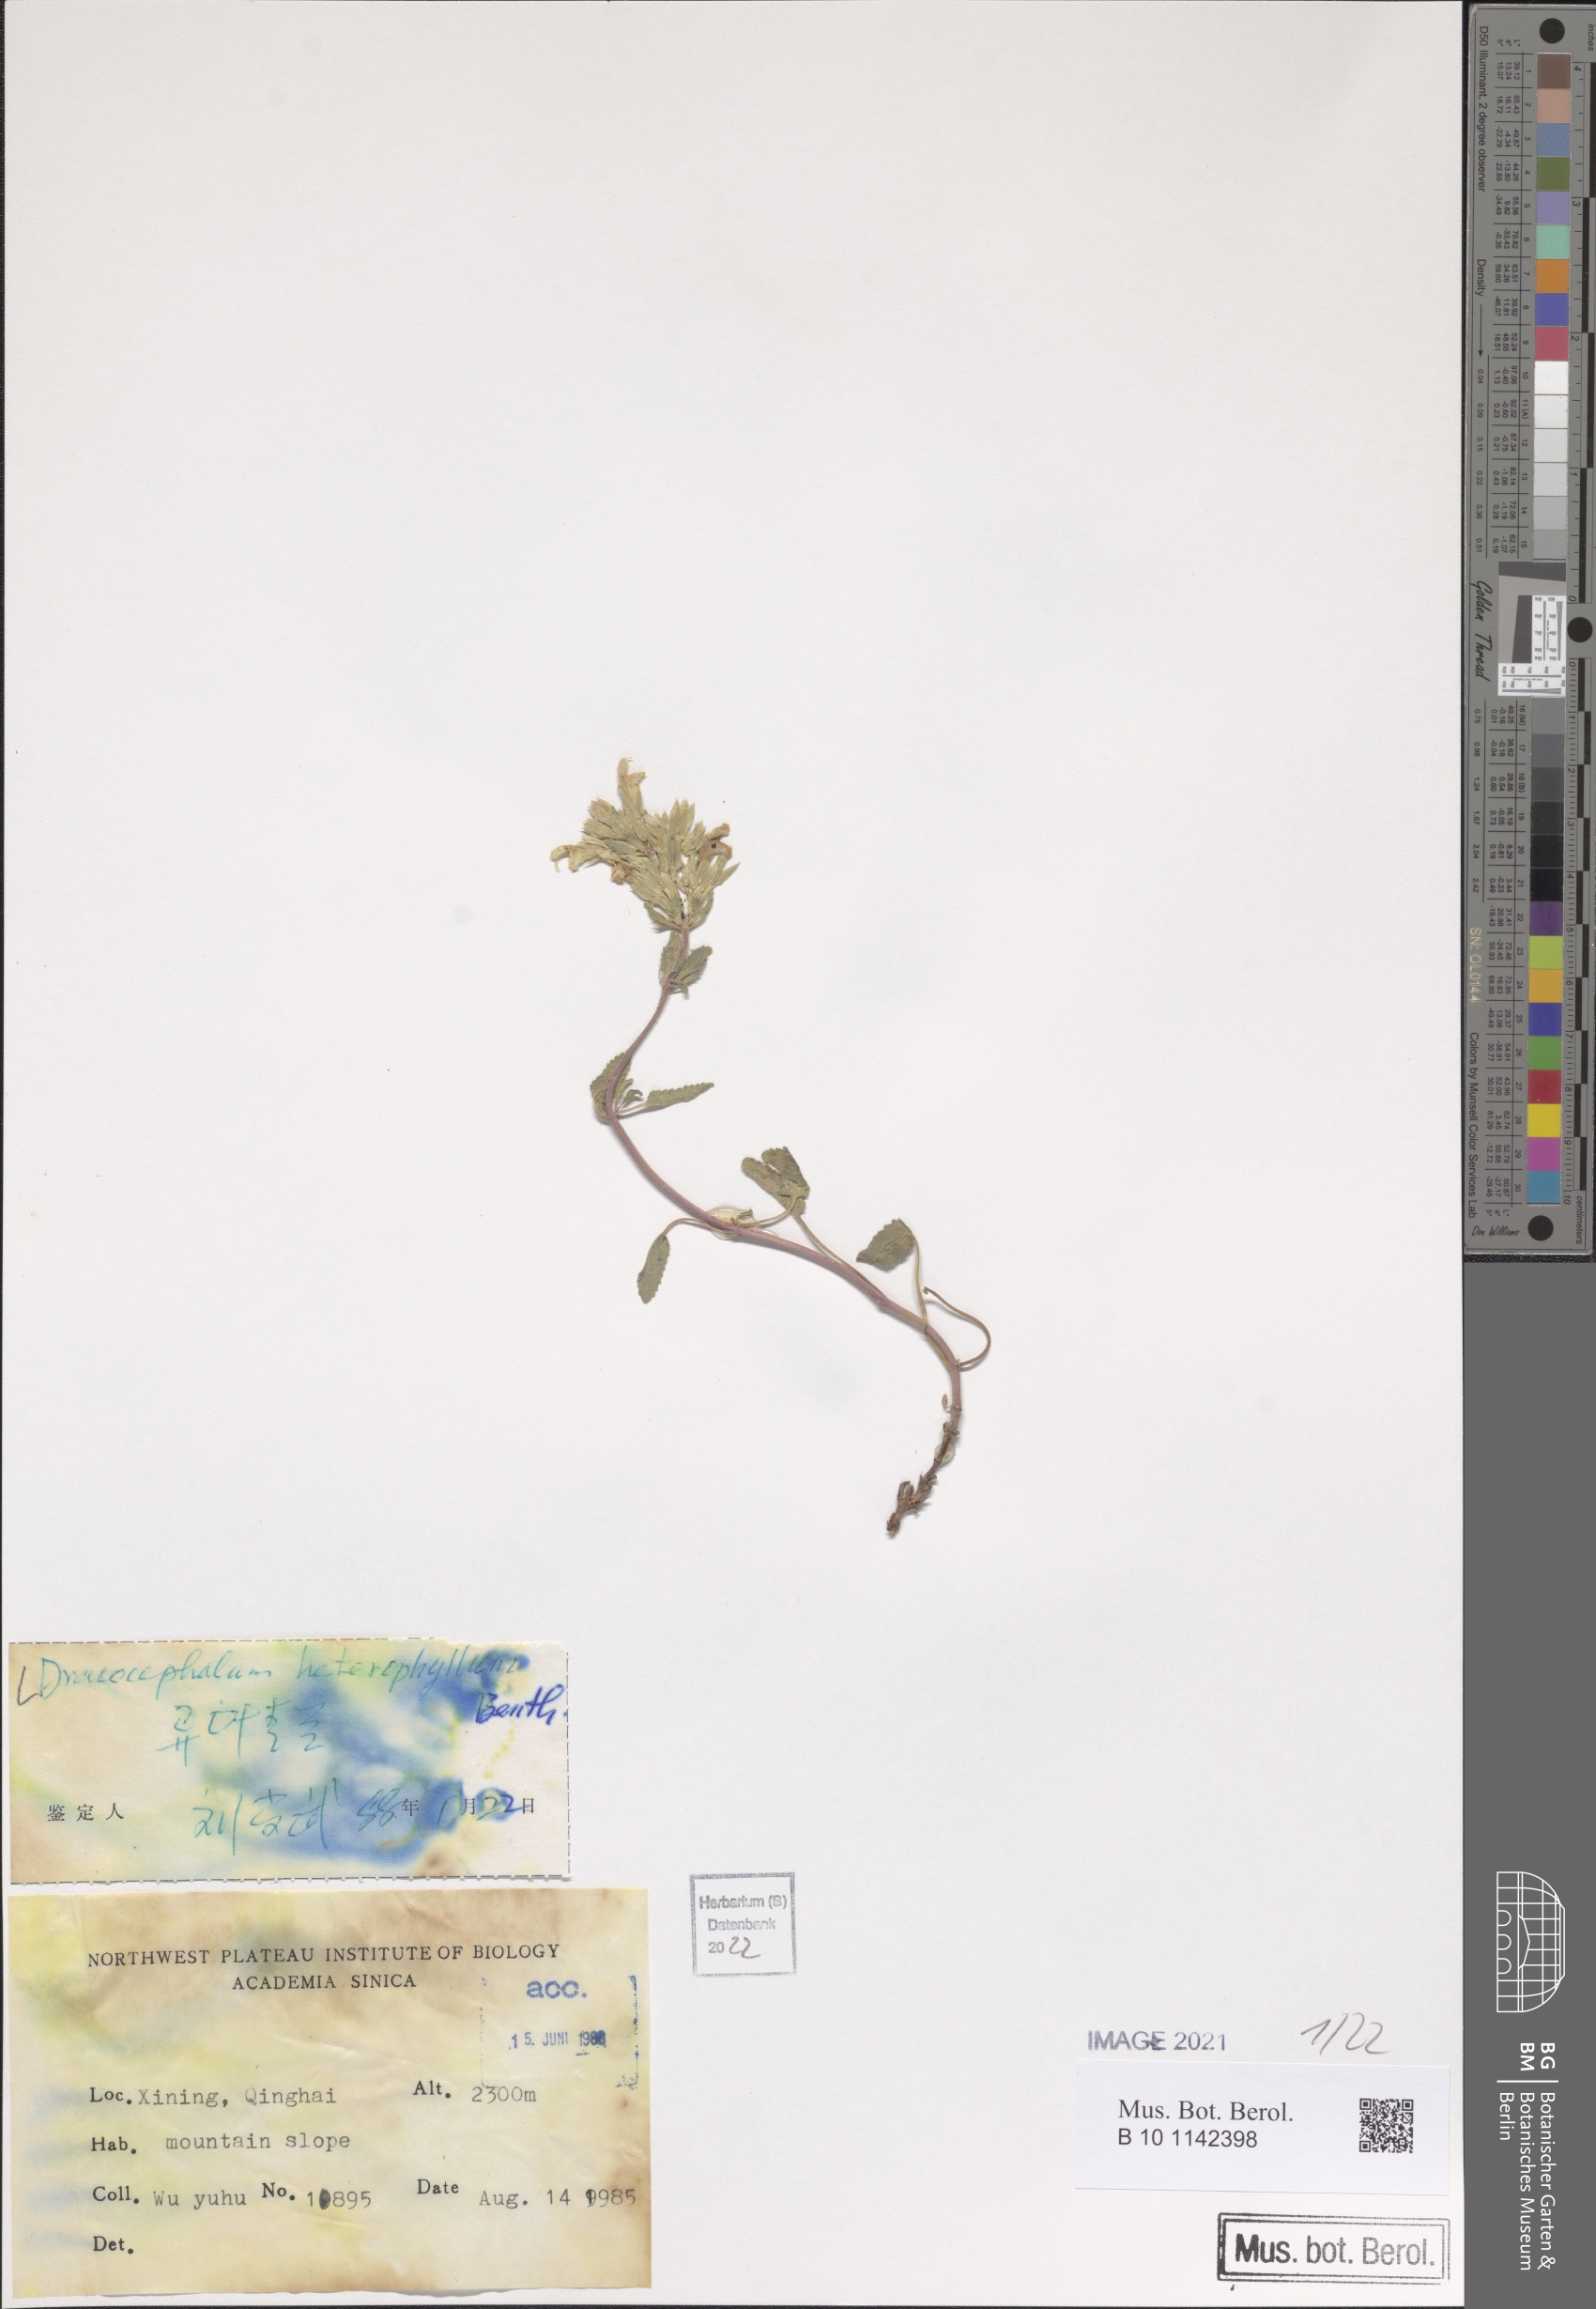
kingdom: Plantae
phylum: Tracheophyta
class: Magnoliopsida
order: Lamiales
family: Lamiaceae
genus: Dracocephalum
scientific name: Dracocephalum heterophyllum
